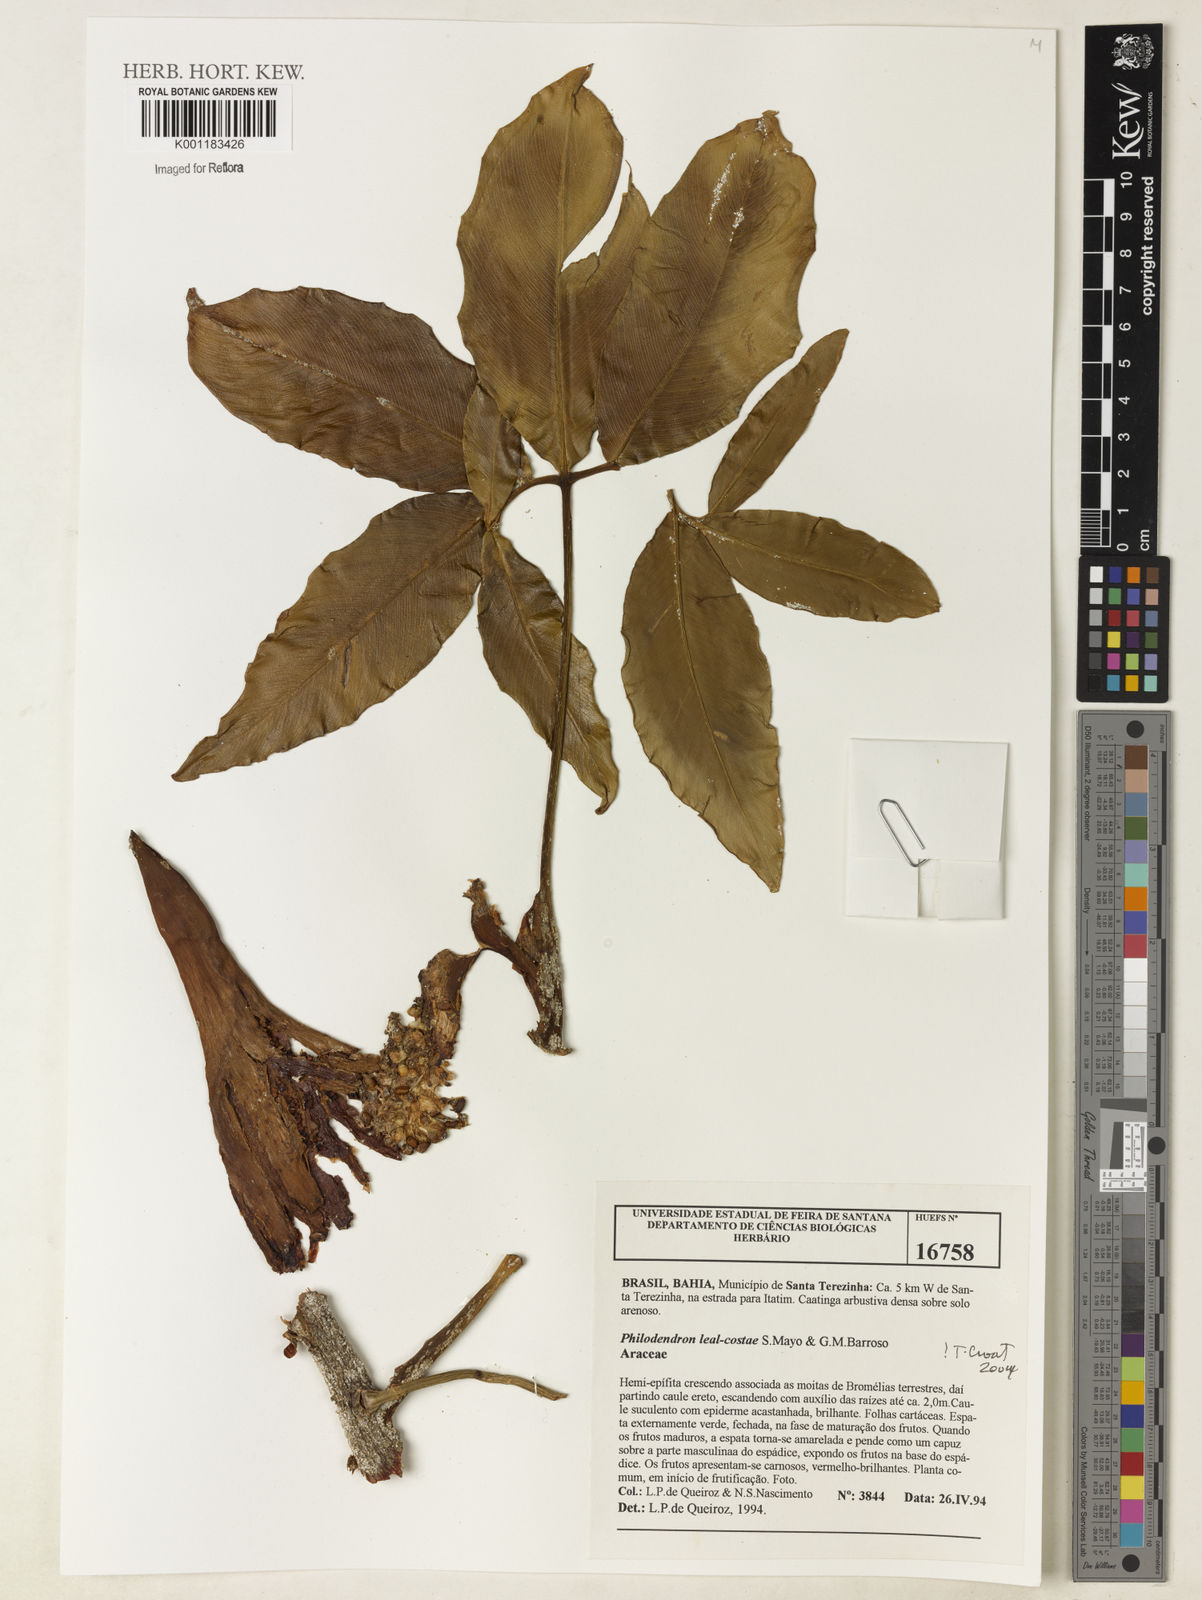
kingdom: Plantae
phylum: Tracheophyta
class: Liliopsida
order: Alismatales
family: Araceae
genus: Thaumatophyllum
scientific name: Thaumatophyllum leal-costae
